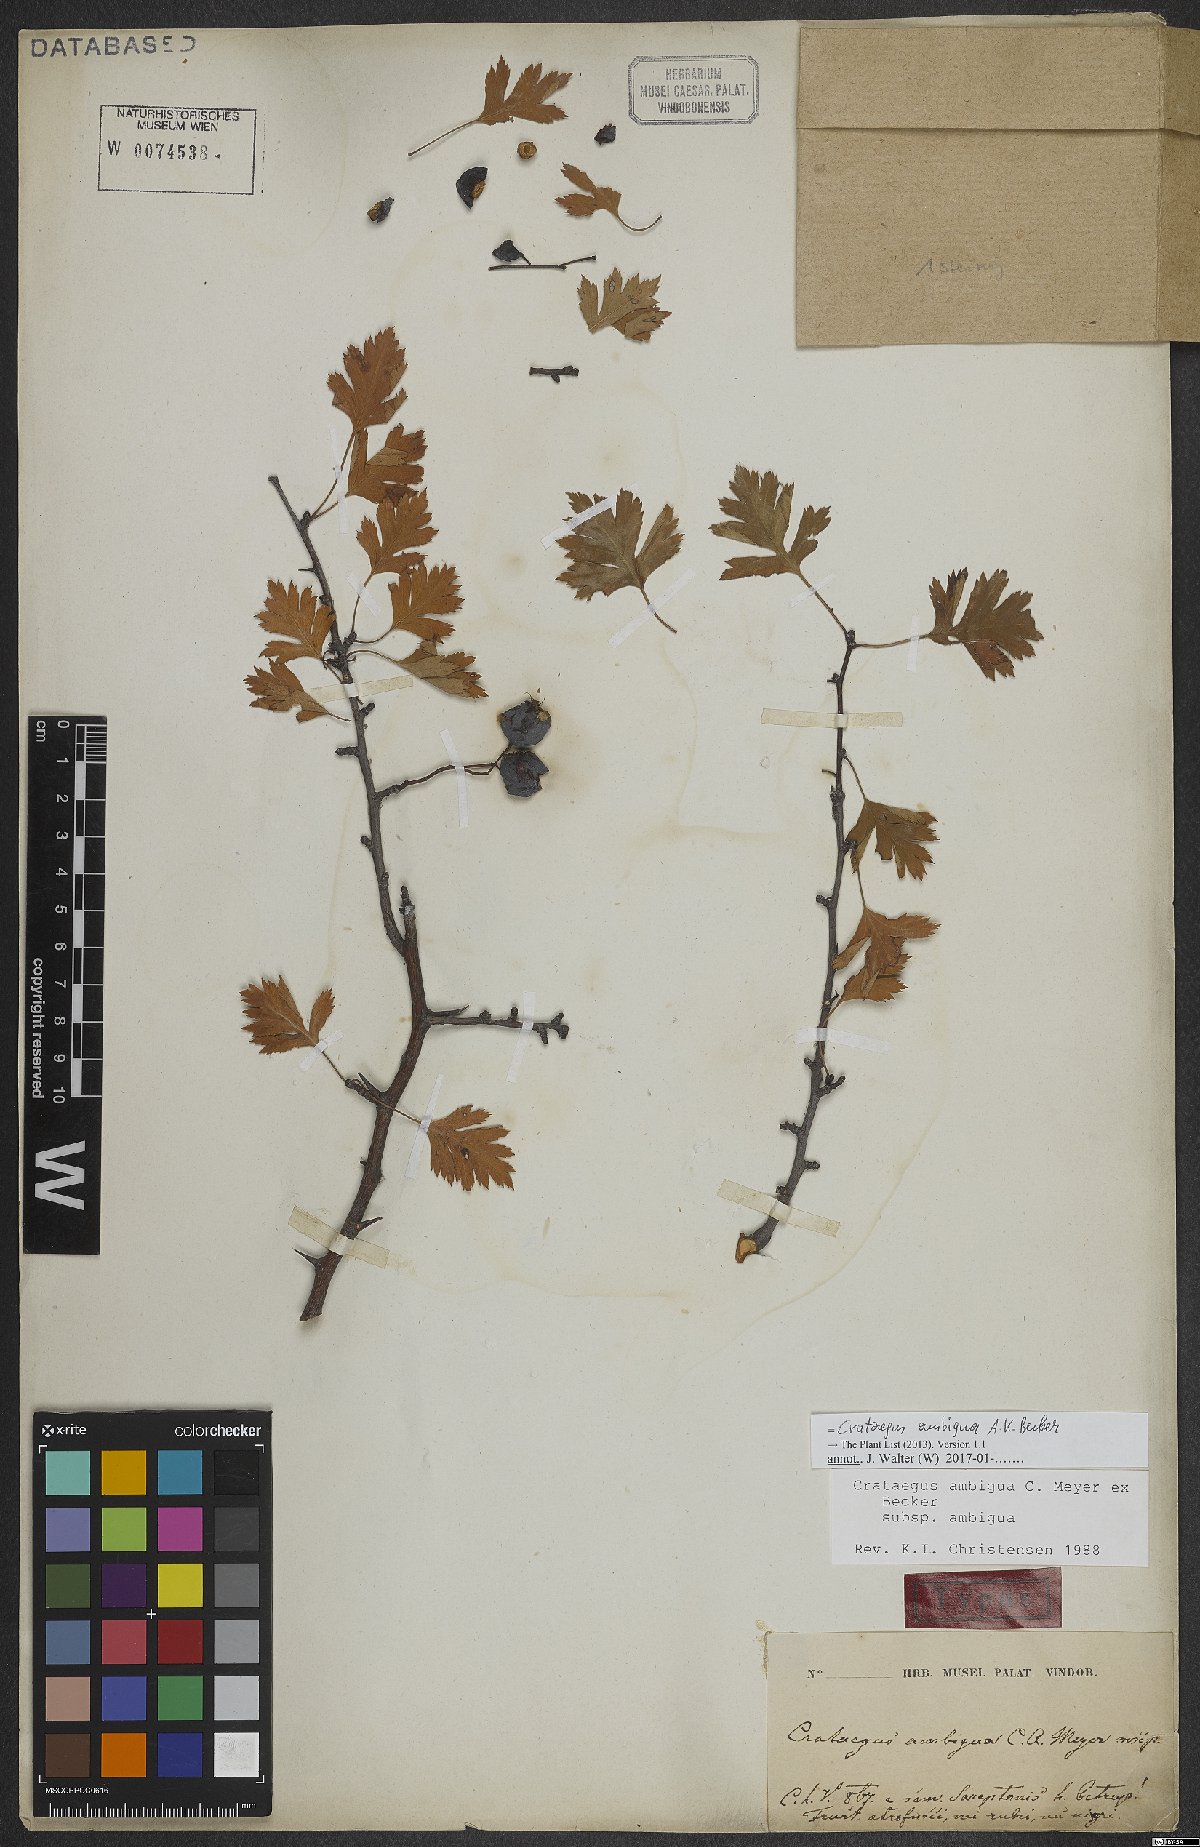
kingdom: Plantae
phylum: Tracheophyta
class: Magnoliopsida
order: Rosales
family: Rosaceae
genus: Crataegus
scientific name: Crataegus ambigua
